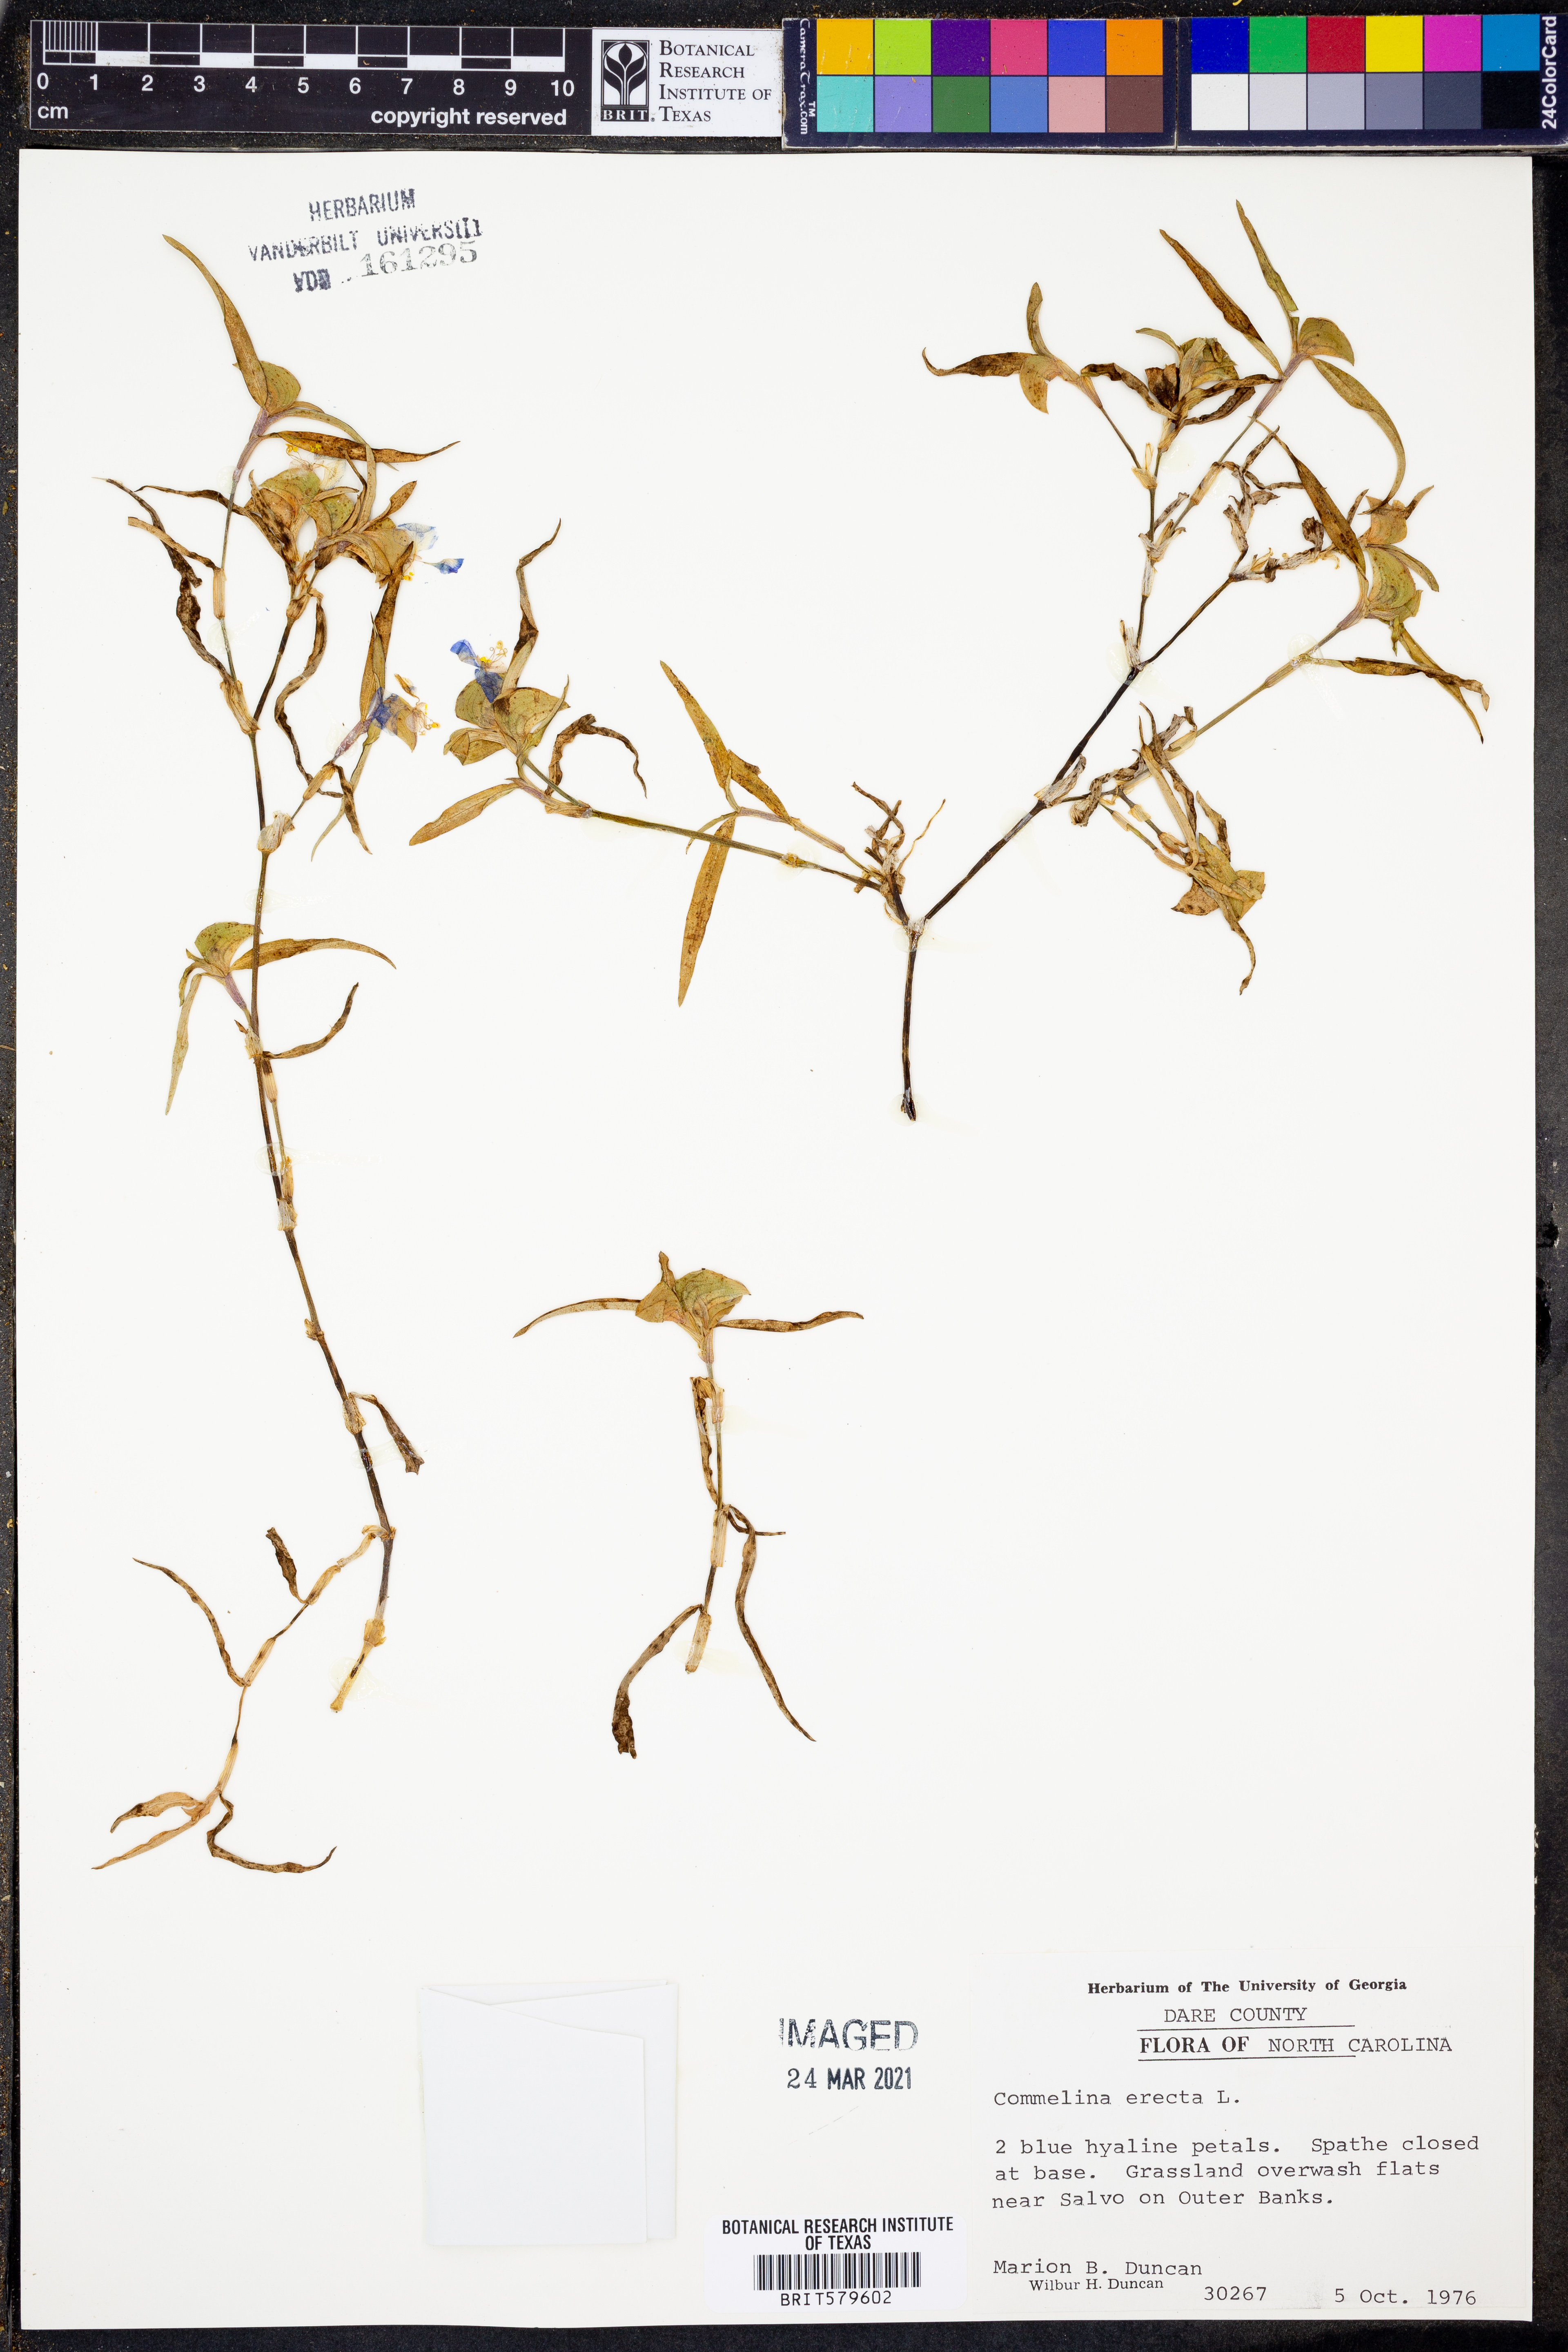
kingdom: Plantae
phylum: Tracheophyta
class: Liliopsida
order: Commelinales
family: Commelinaceae
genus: Commelina
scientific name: Commelina erecta
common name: Blousel blommetjie
